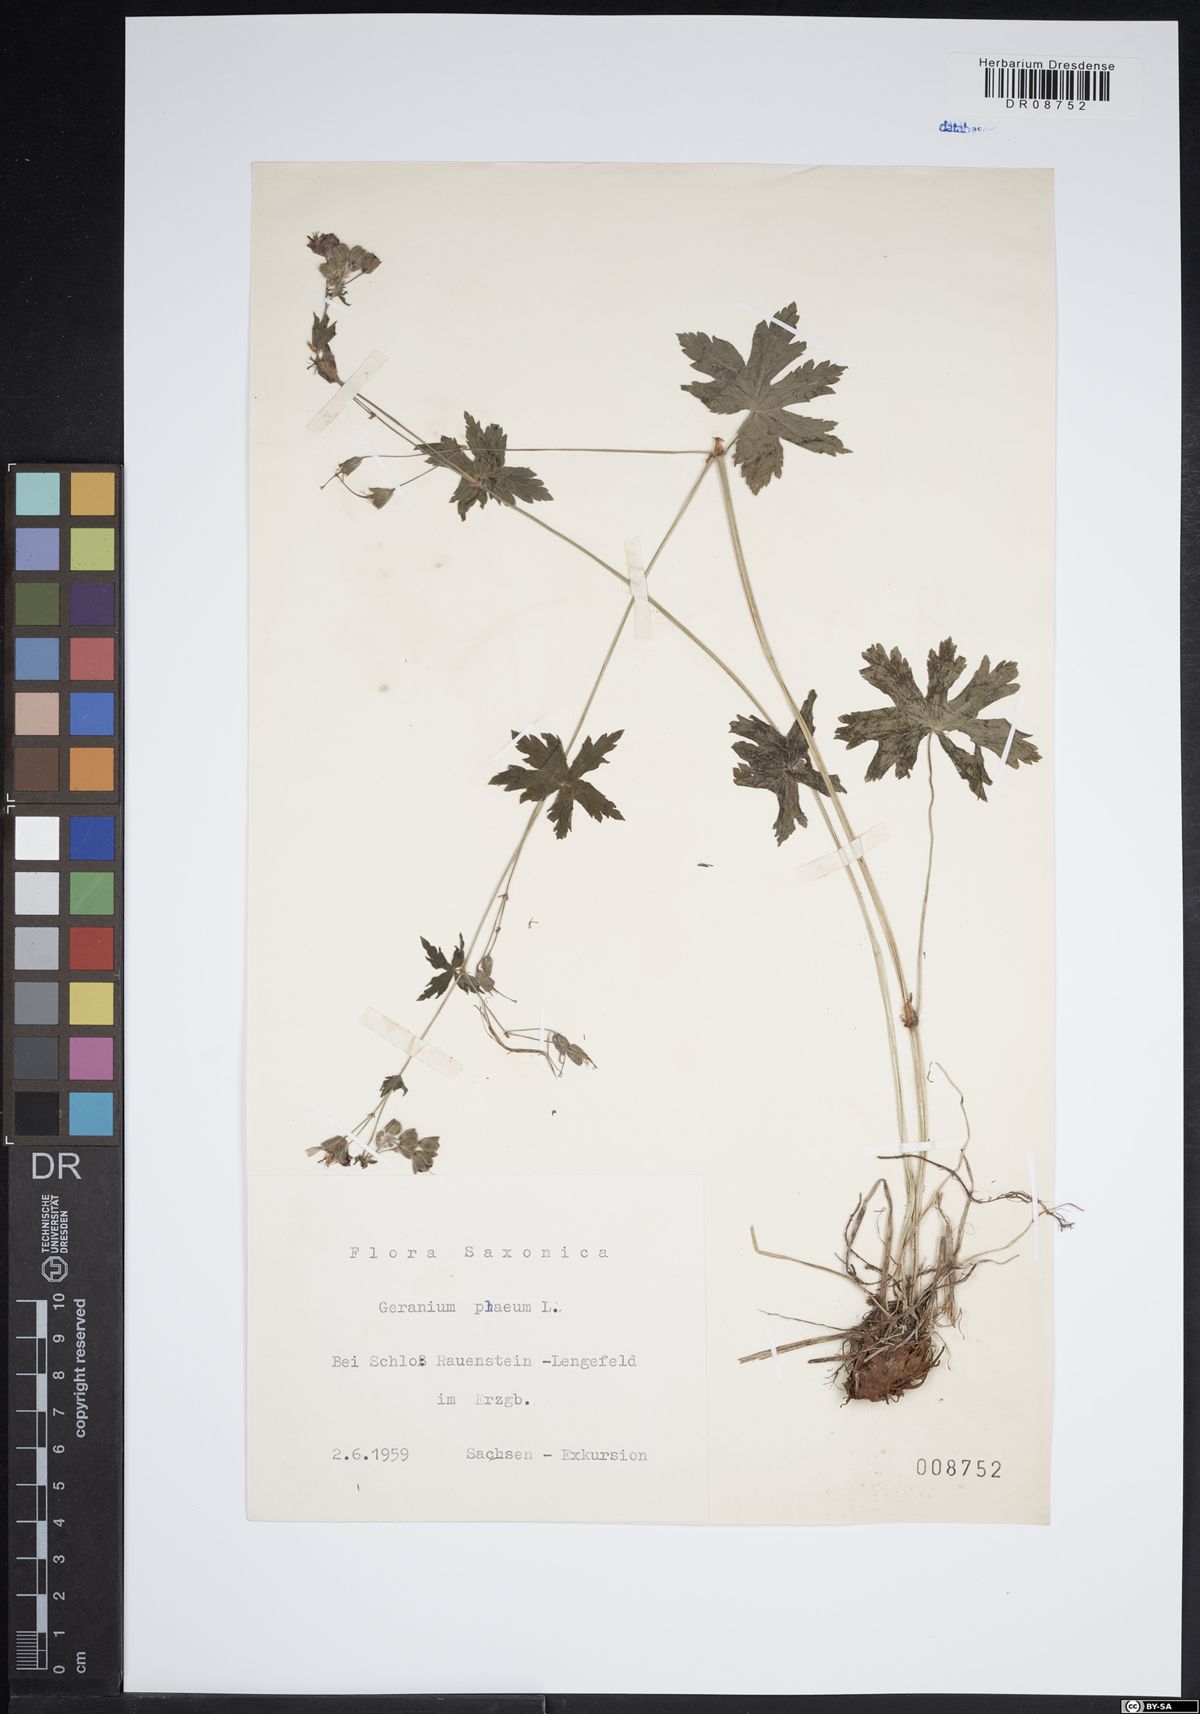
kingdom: Plantae
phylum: Tracheophyta
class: Magnoliopsida
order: Geraniales
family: Geraniaceae
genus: Geranium
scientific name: Geranium phaeum
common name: Dusky crane's-bill
